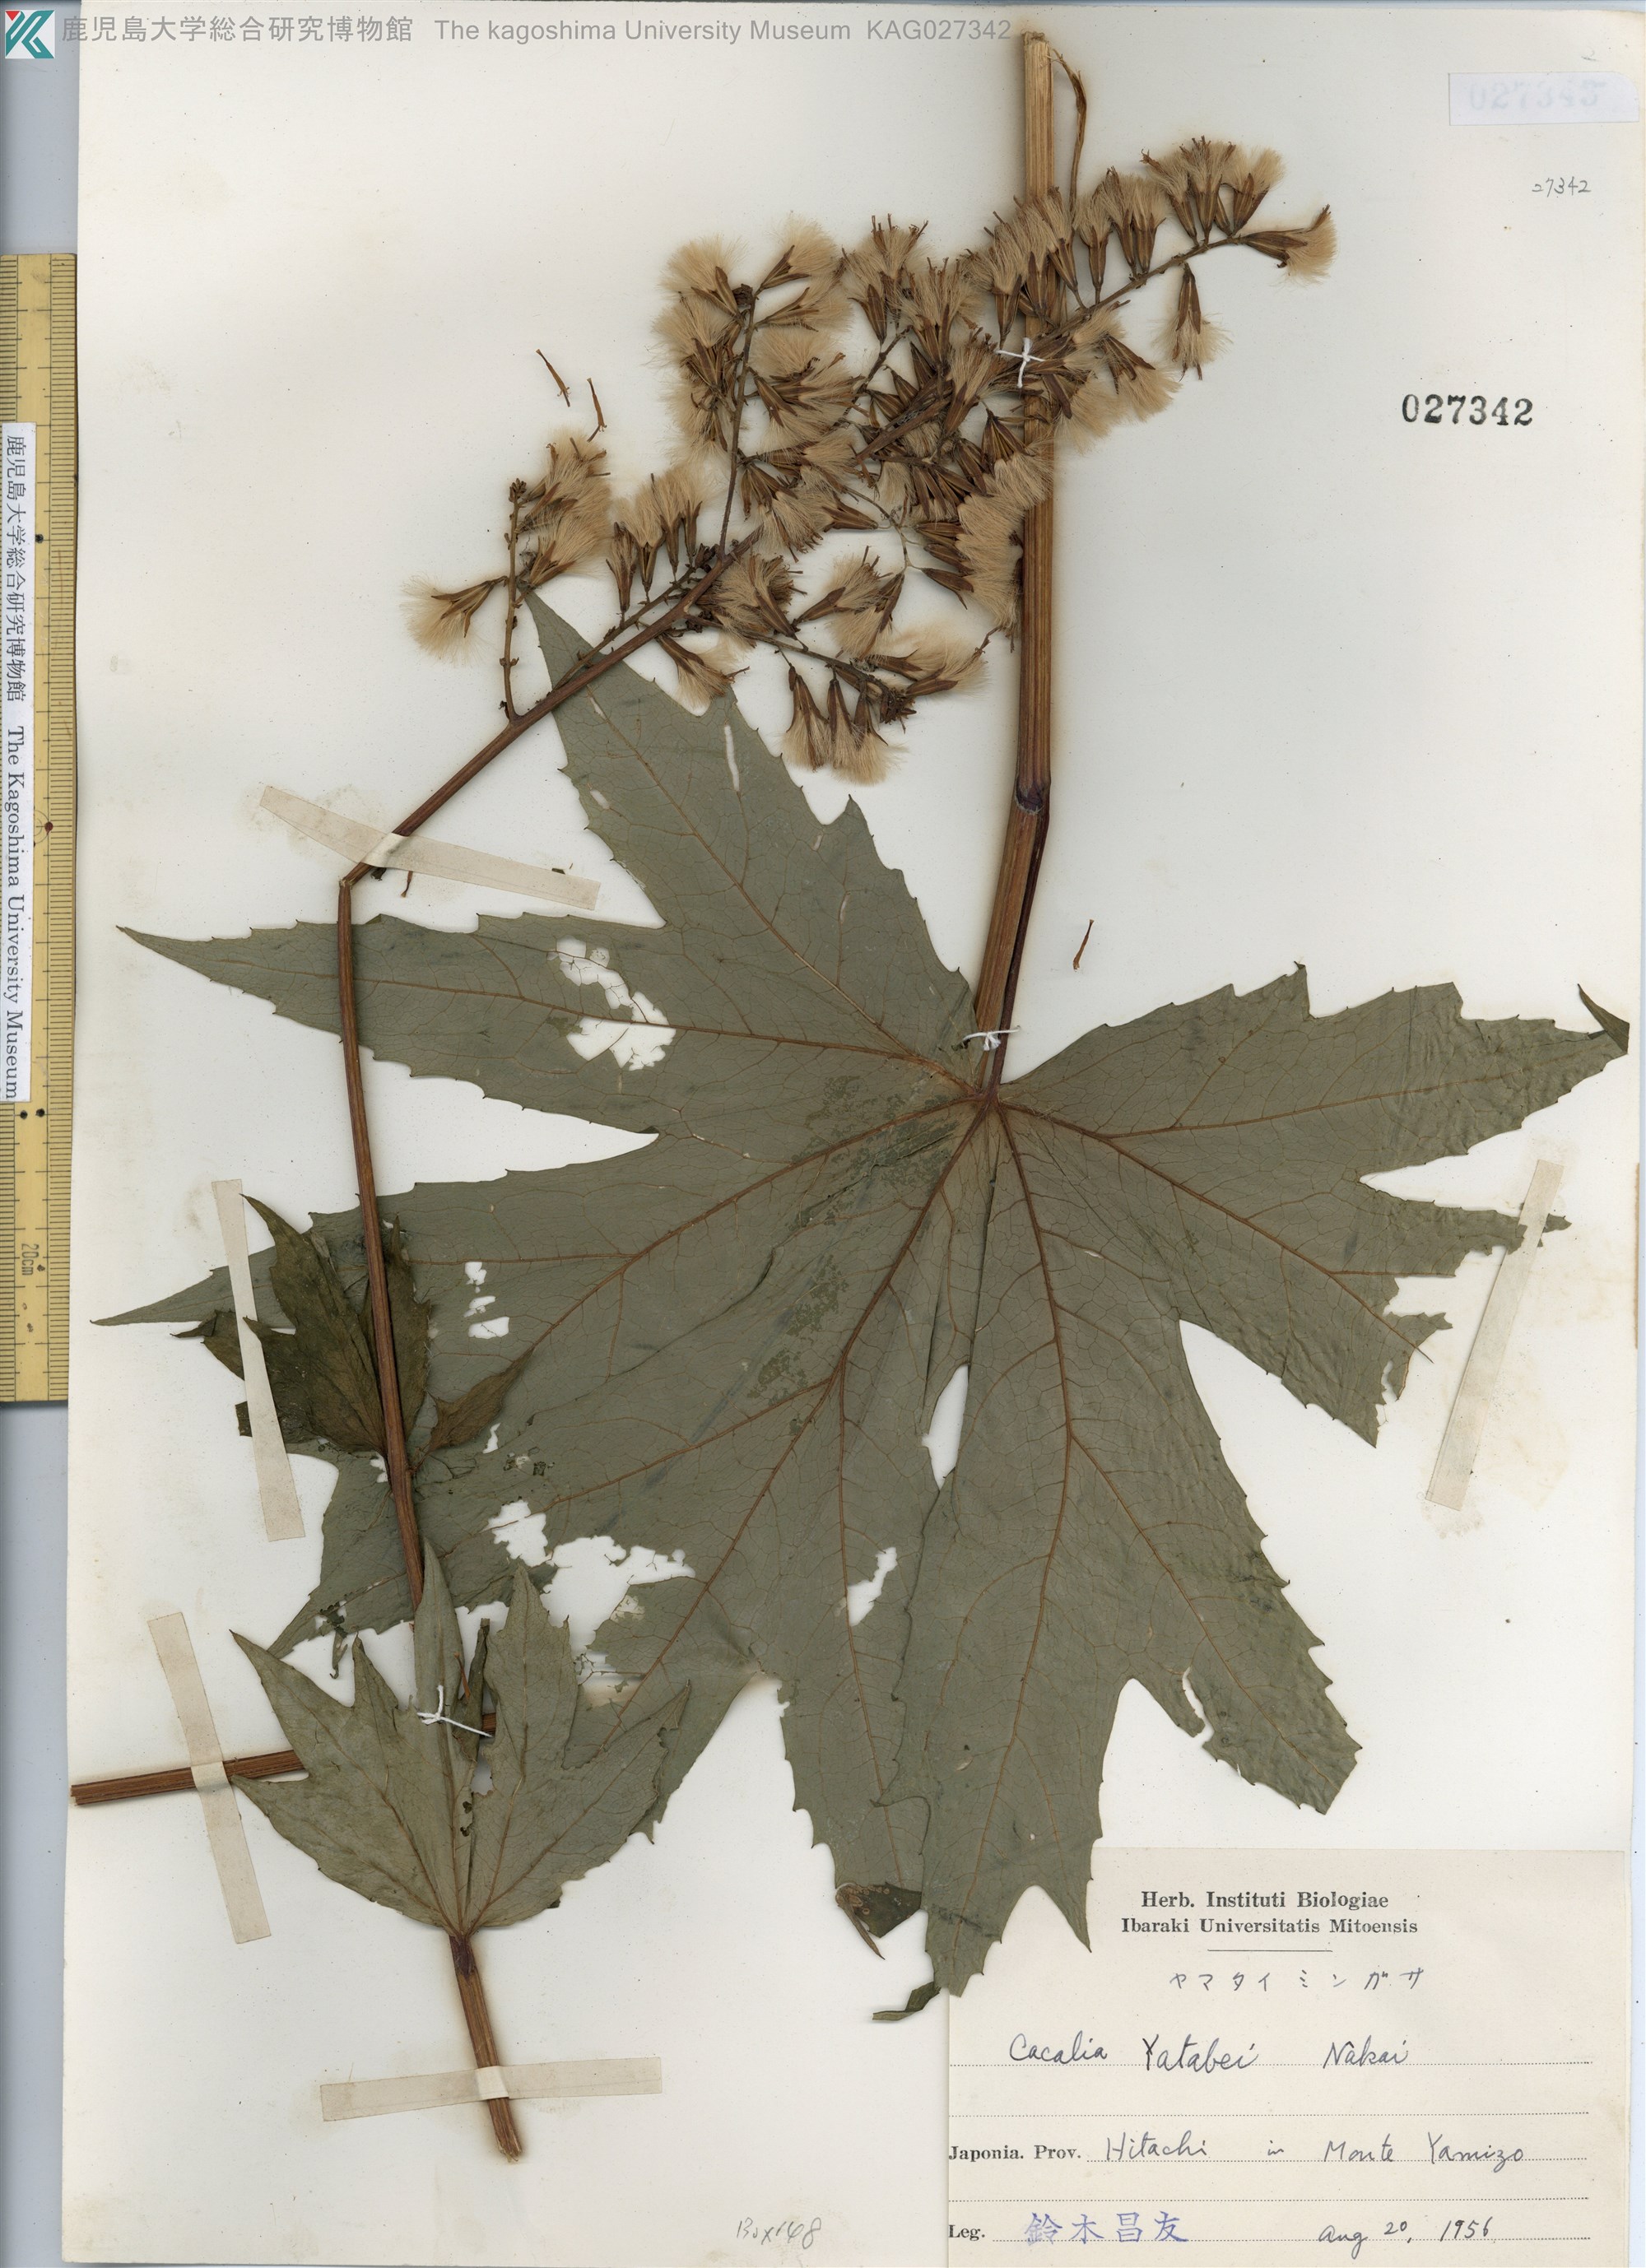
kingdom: Plantae
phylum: Tracheophyta
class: Magnoliopsida
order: Asterales
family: Asteraceae
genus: Taimingasa
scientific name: Taimingasa yatabei
